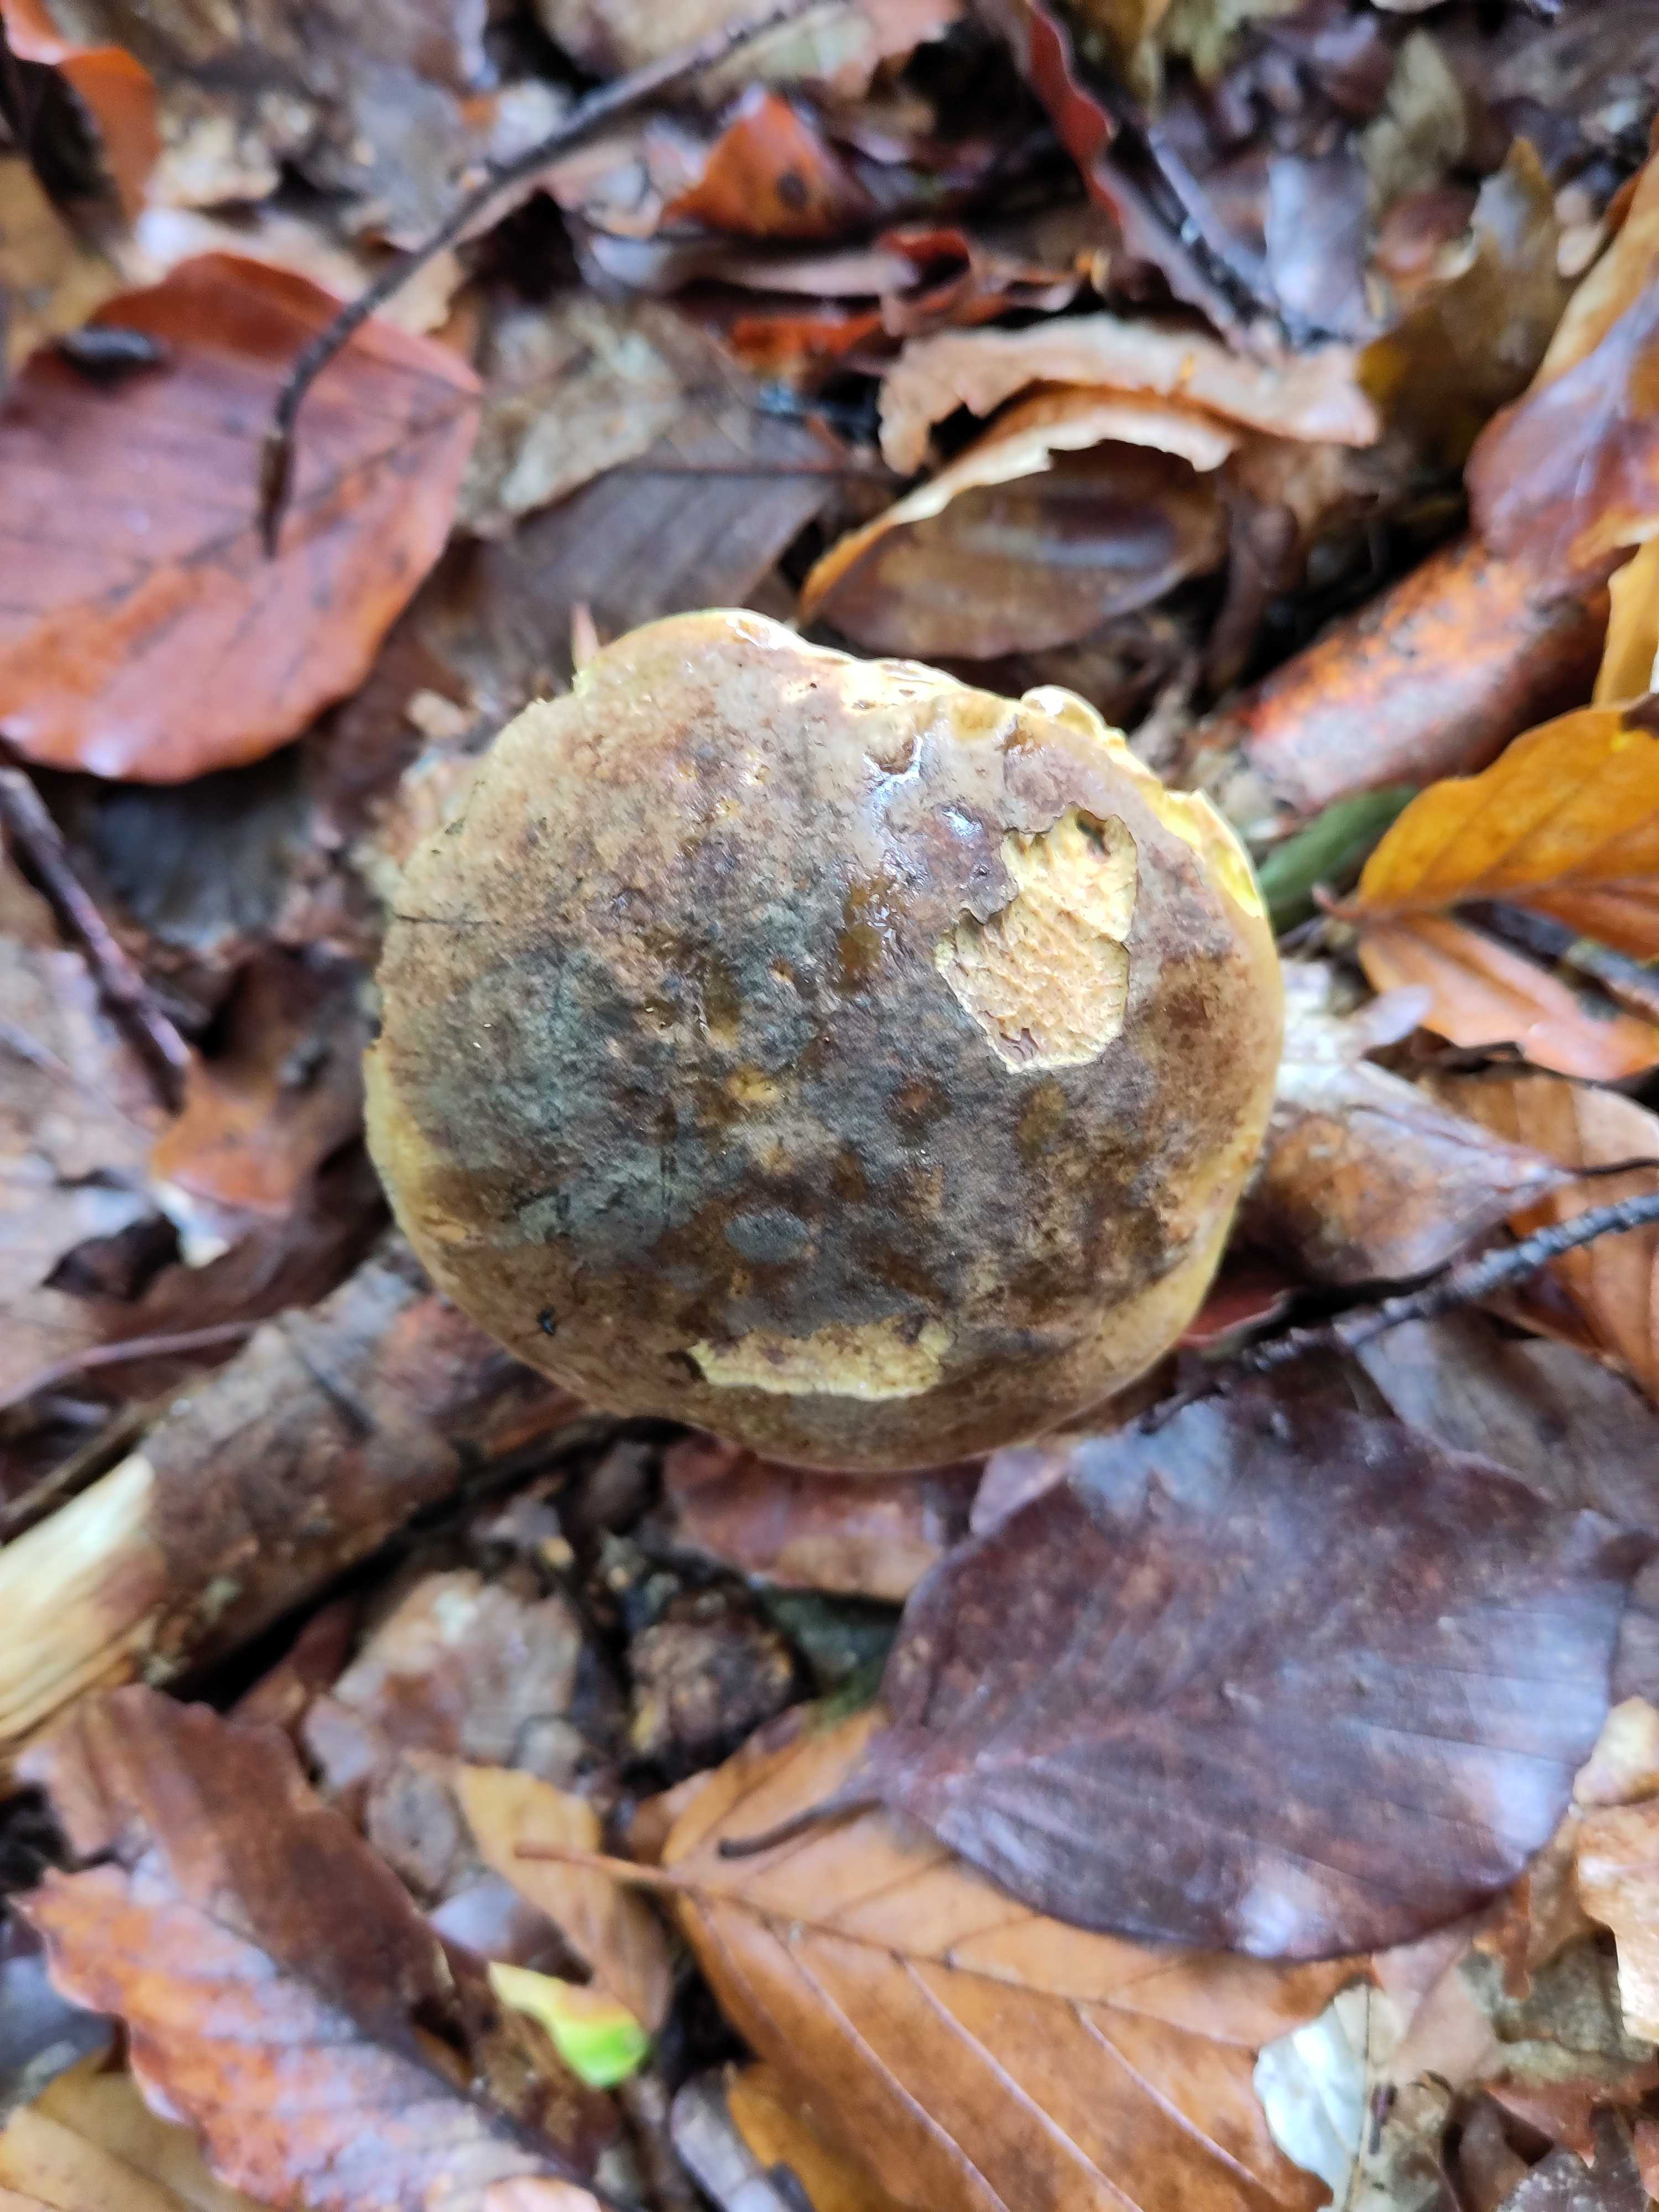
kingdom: Fungi
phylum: Basidiomycota
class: Agaricomycetes
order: Boletales
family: Boletaceae
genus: Neoboletus
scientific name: Neoboletus erythropus
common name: punktstokket indigorørhat
